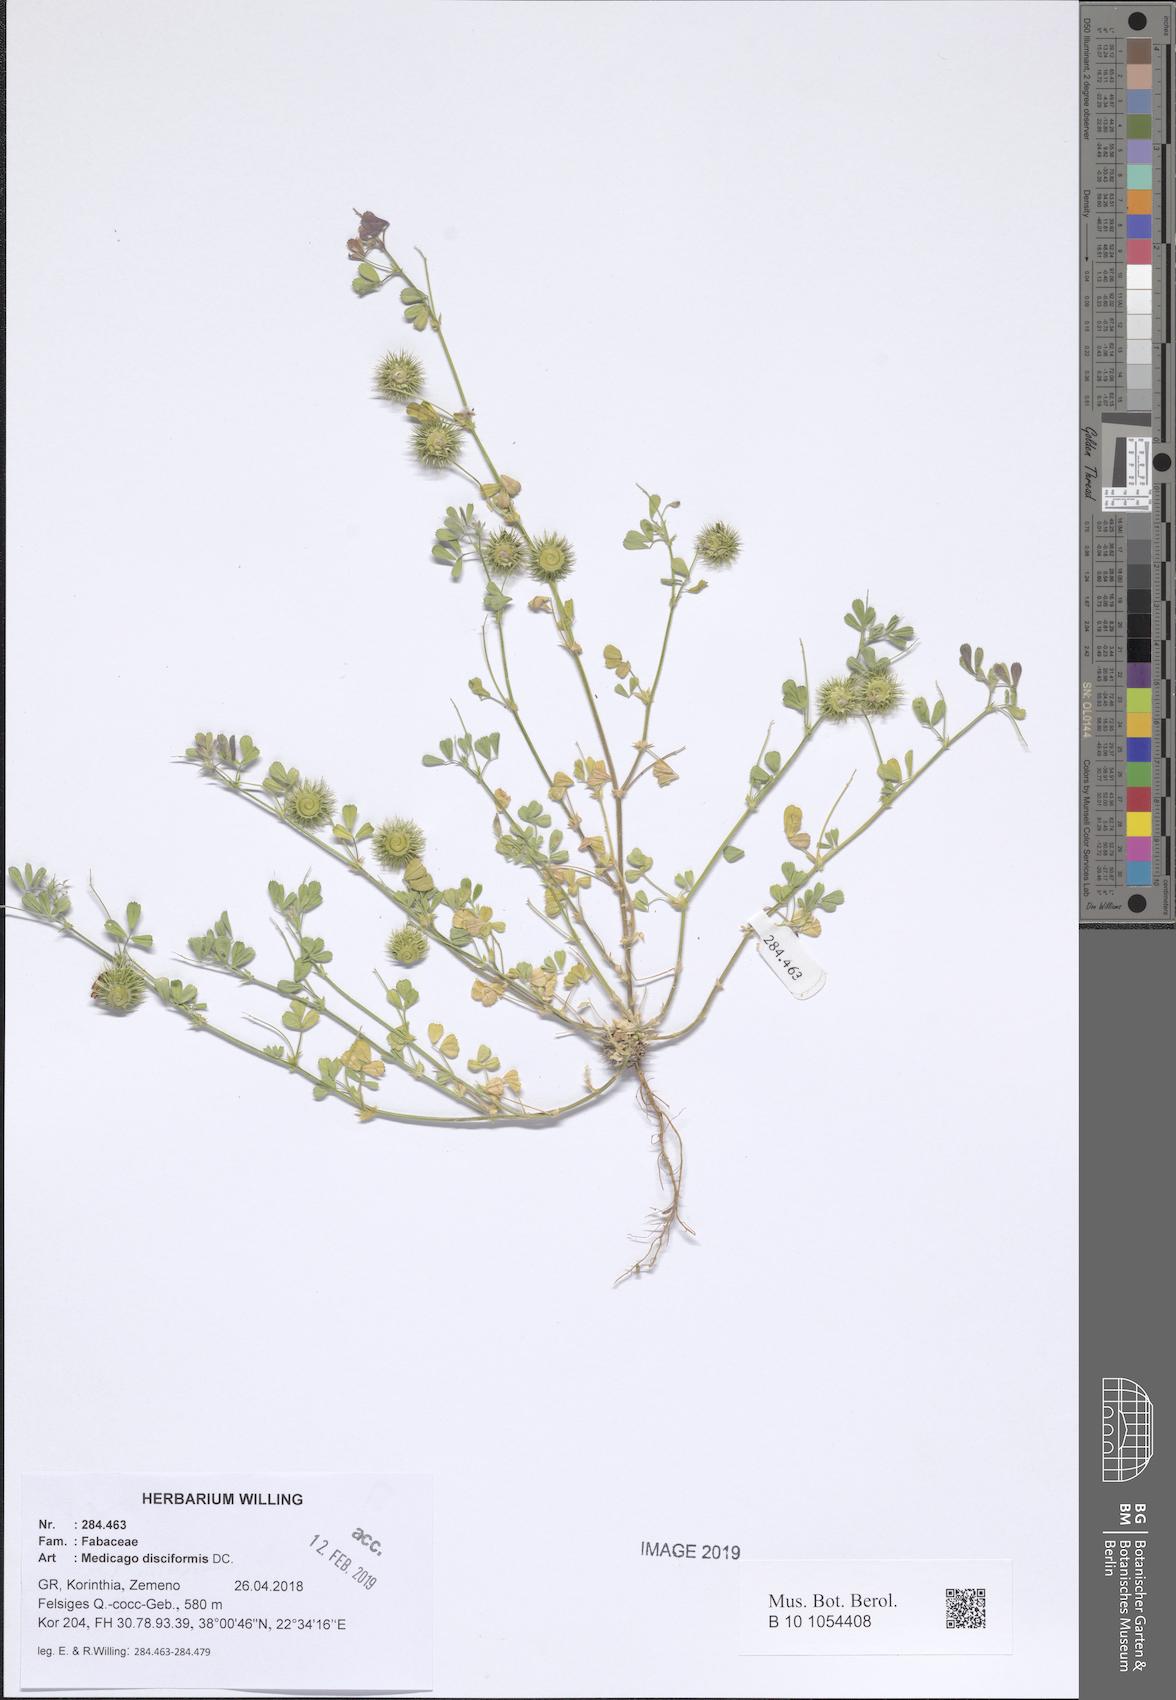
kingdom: Plantae
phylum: Tracheophyta
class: Magnoliopsida
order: Fabales
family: Fabaceae
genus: Medicago
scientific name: Medicago disciformis
